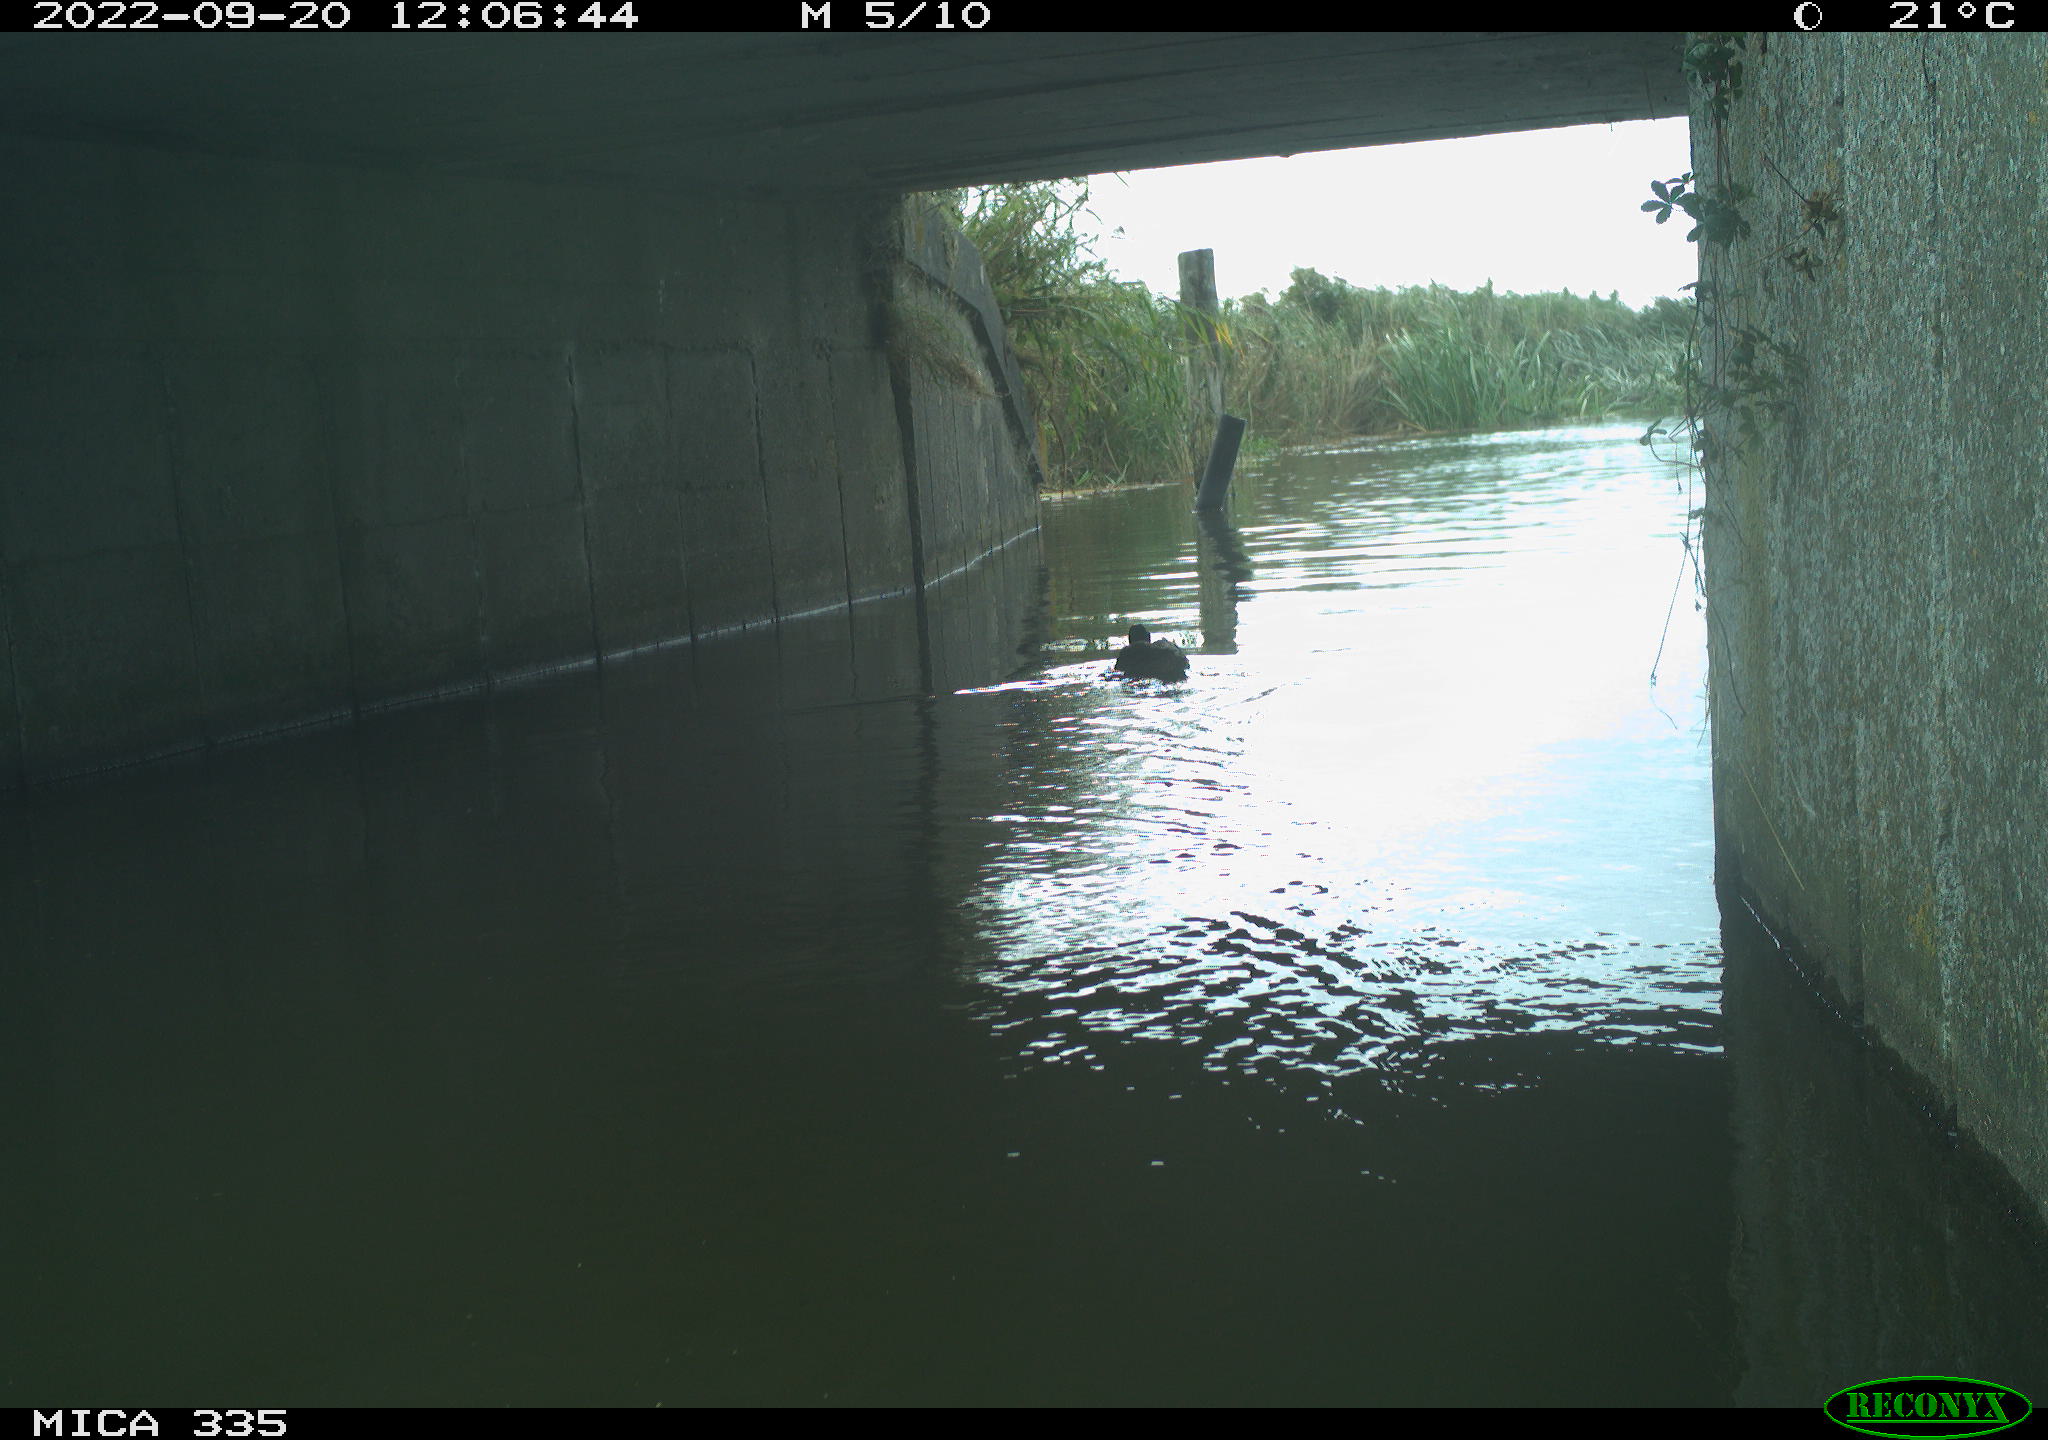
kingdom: Animalia
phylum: Chordata
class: Aves
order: Anseriformes
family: Anatidae
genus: Anas
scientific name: Anas platyrhynchos
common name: Mallard
